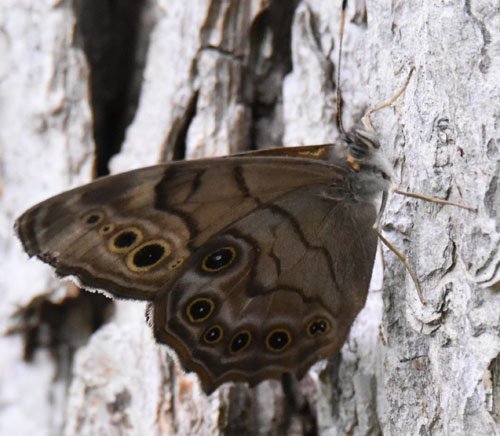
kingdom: Animalia
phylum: Arthropoda
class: Insecta
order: Lepidoptera
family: Nymphalidae
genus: Lethe
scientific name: Lethe anthedon
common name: Northern Pearly-Eye
